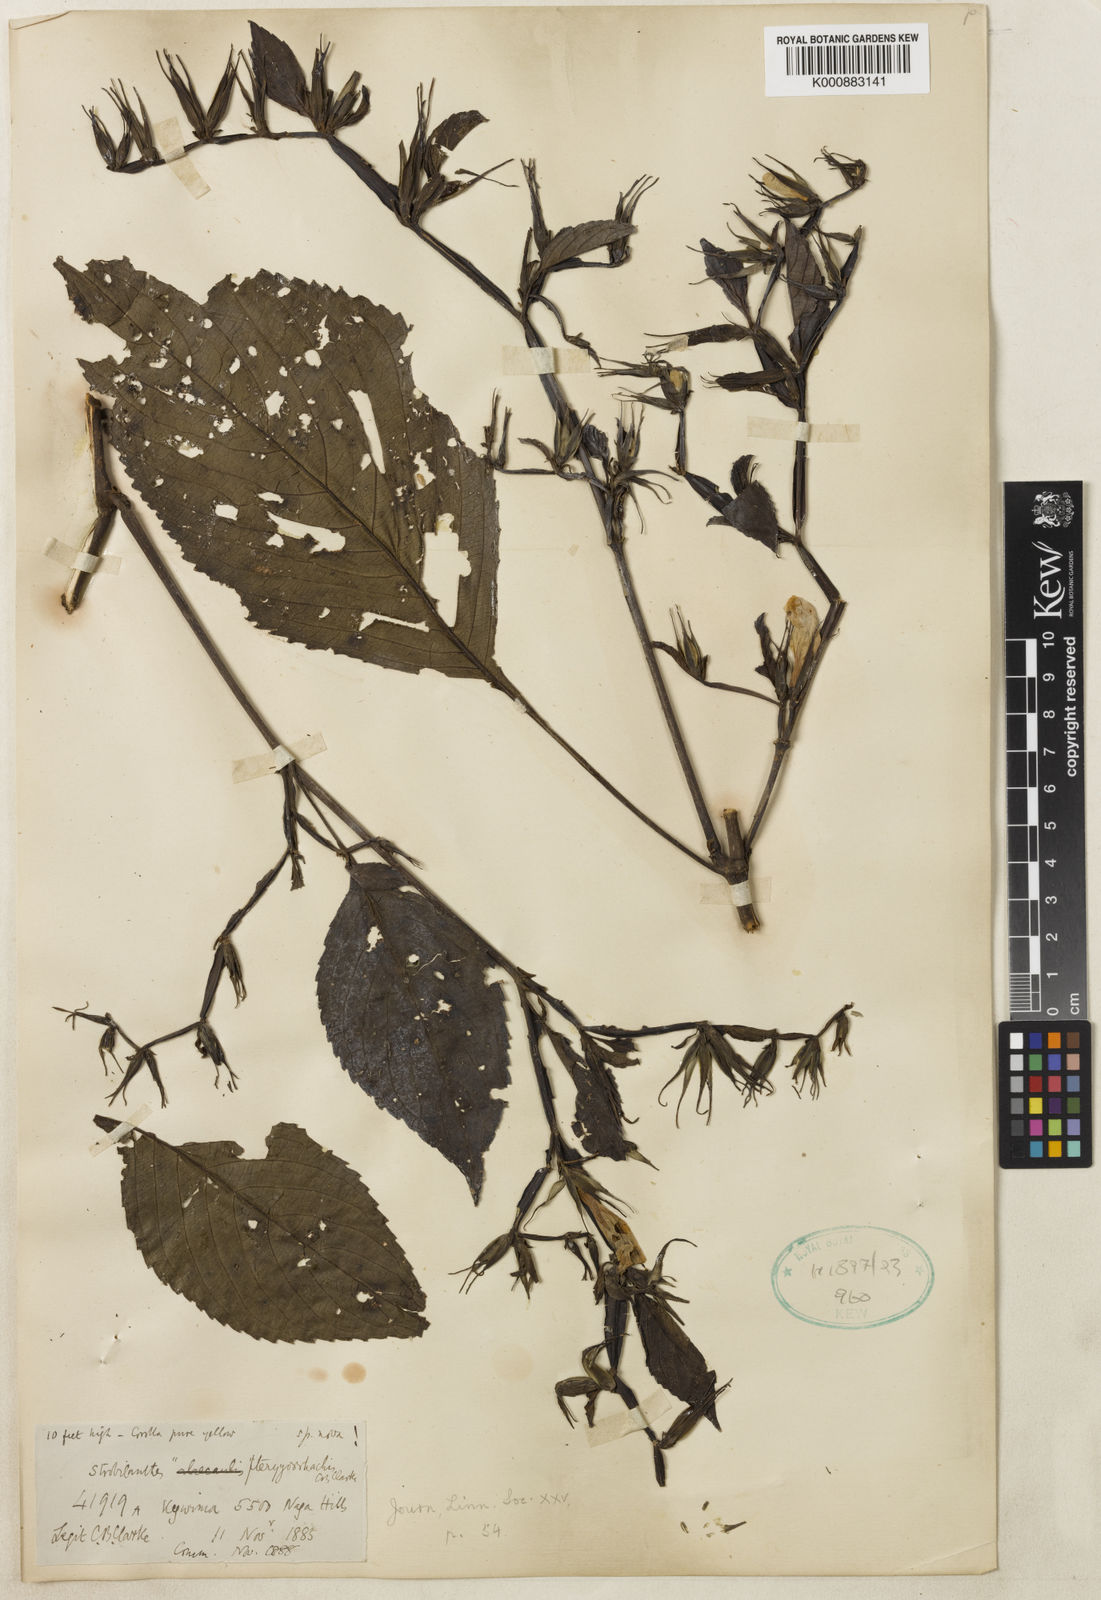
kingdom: Plantae
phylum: Tracheophyta
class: Magnoliopsida
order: Lamiales
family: Acanthaceae
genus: Strobilanthes
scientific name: Strobilanthes pterygorrhachis
